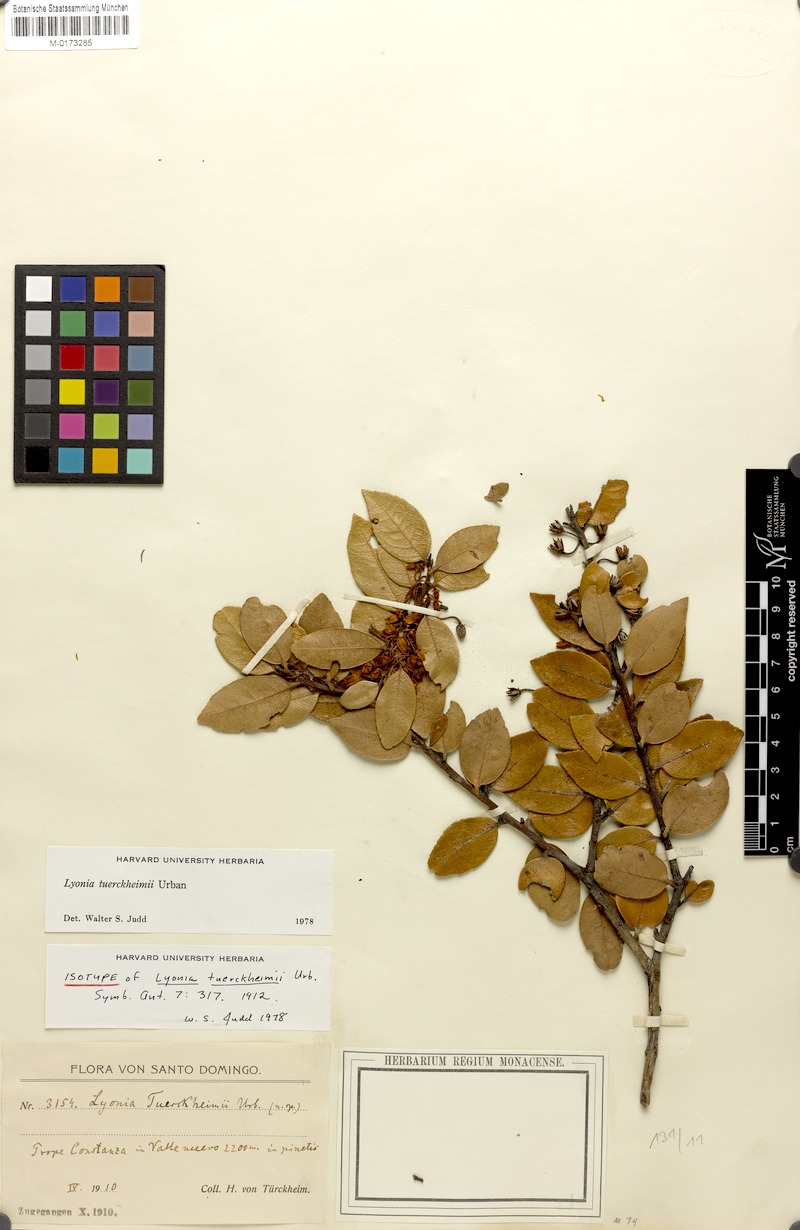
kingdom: Plantae
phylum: Tracheophyta
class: Magnoliopsida
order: Ericales
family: Ericaceae
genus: Lyonia
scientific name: Lyonia tuerckheimii
